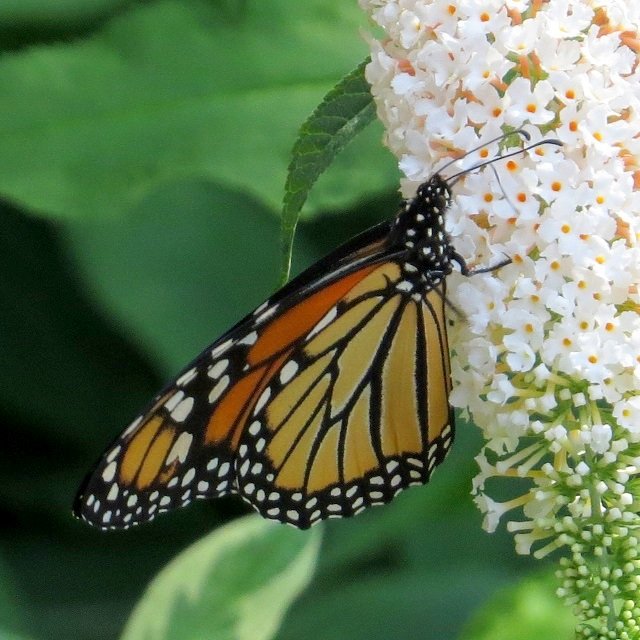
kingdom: Animalia
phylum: Arthropoda
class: Insecta
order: Lepidoptera
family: Nymphalidae
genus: Danaus
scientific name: Danaus plexippus
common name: Monarch
